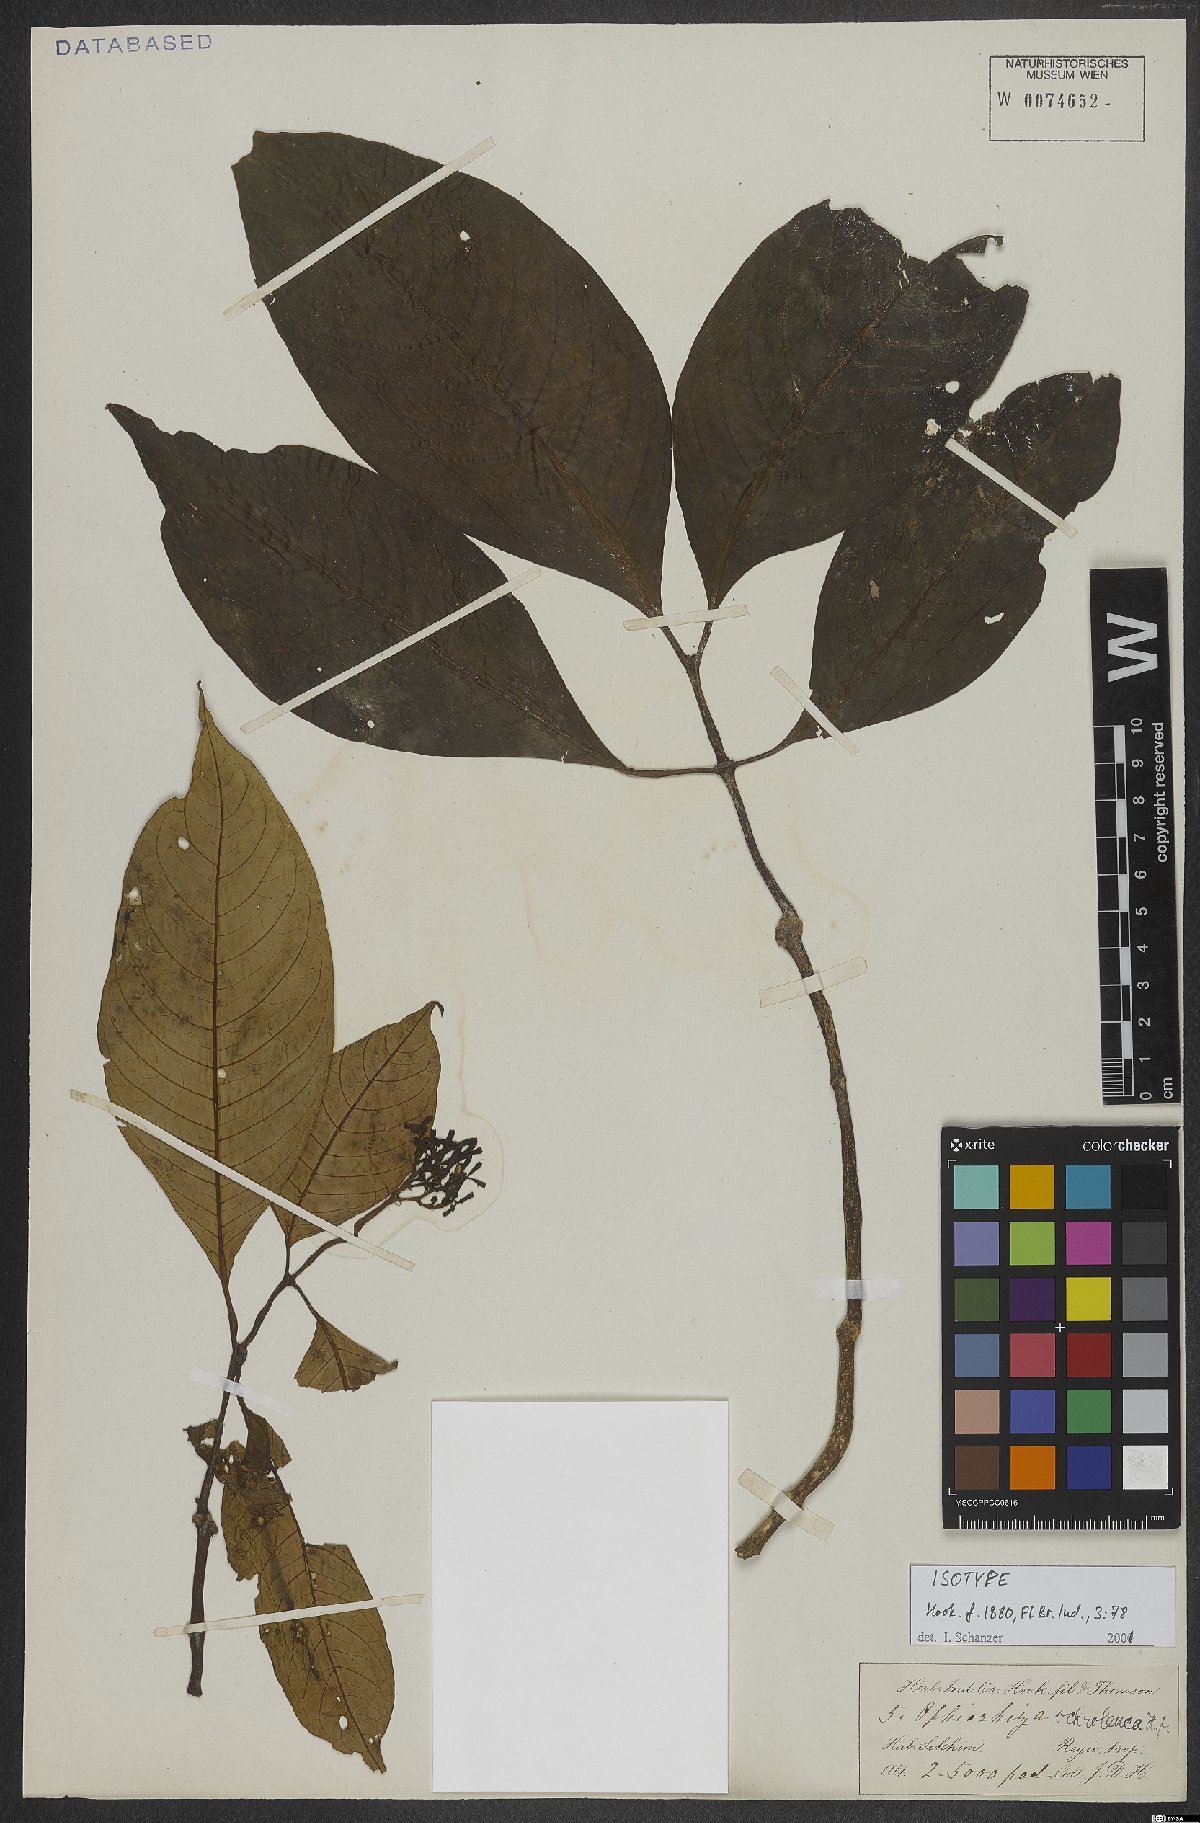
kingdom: Plantae
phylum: Tracheophyta
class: Magnoliopsida
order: Gentianales
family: Rubiaceae
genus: Ophiorrhiza
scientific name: Ophiorrhiza ochroleuca
